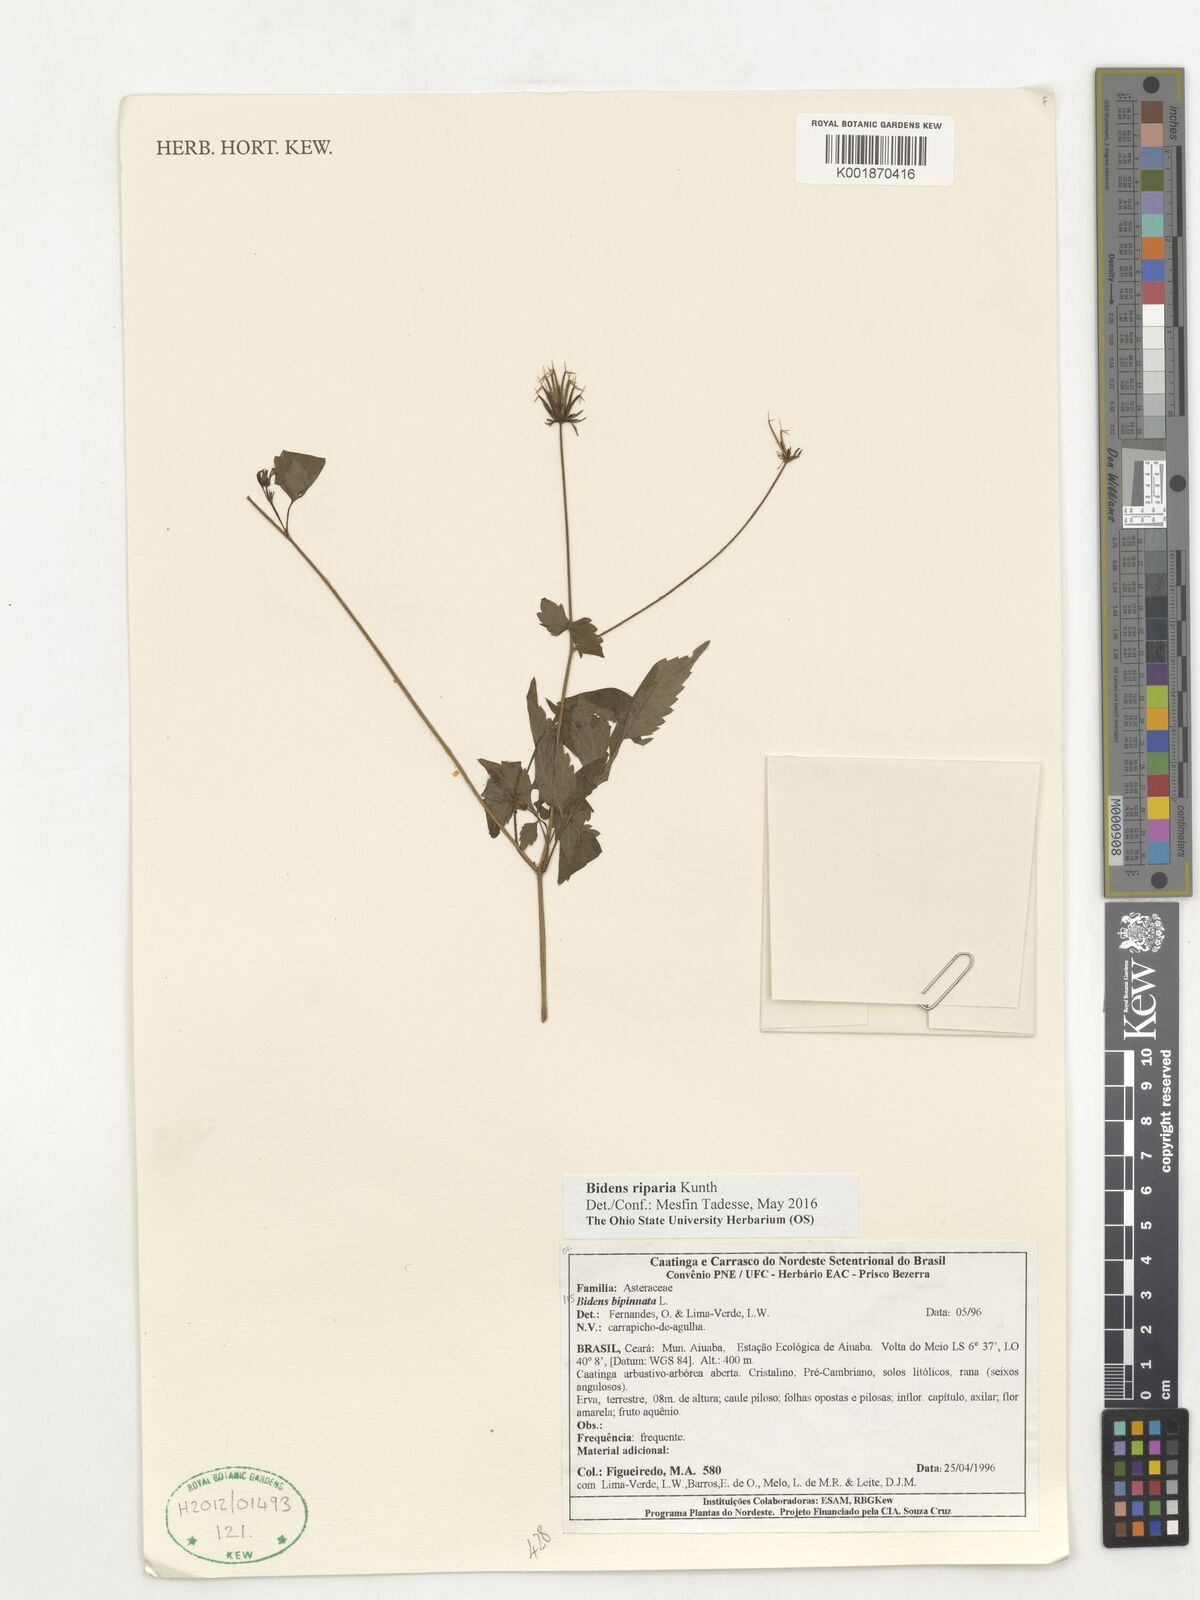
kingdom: Plantae
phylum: Tracheophyta
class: Magnoliopsida
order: Asterales
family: Asteraceae
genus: Bidens
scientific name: Bidens riparia
